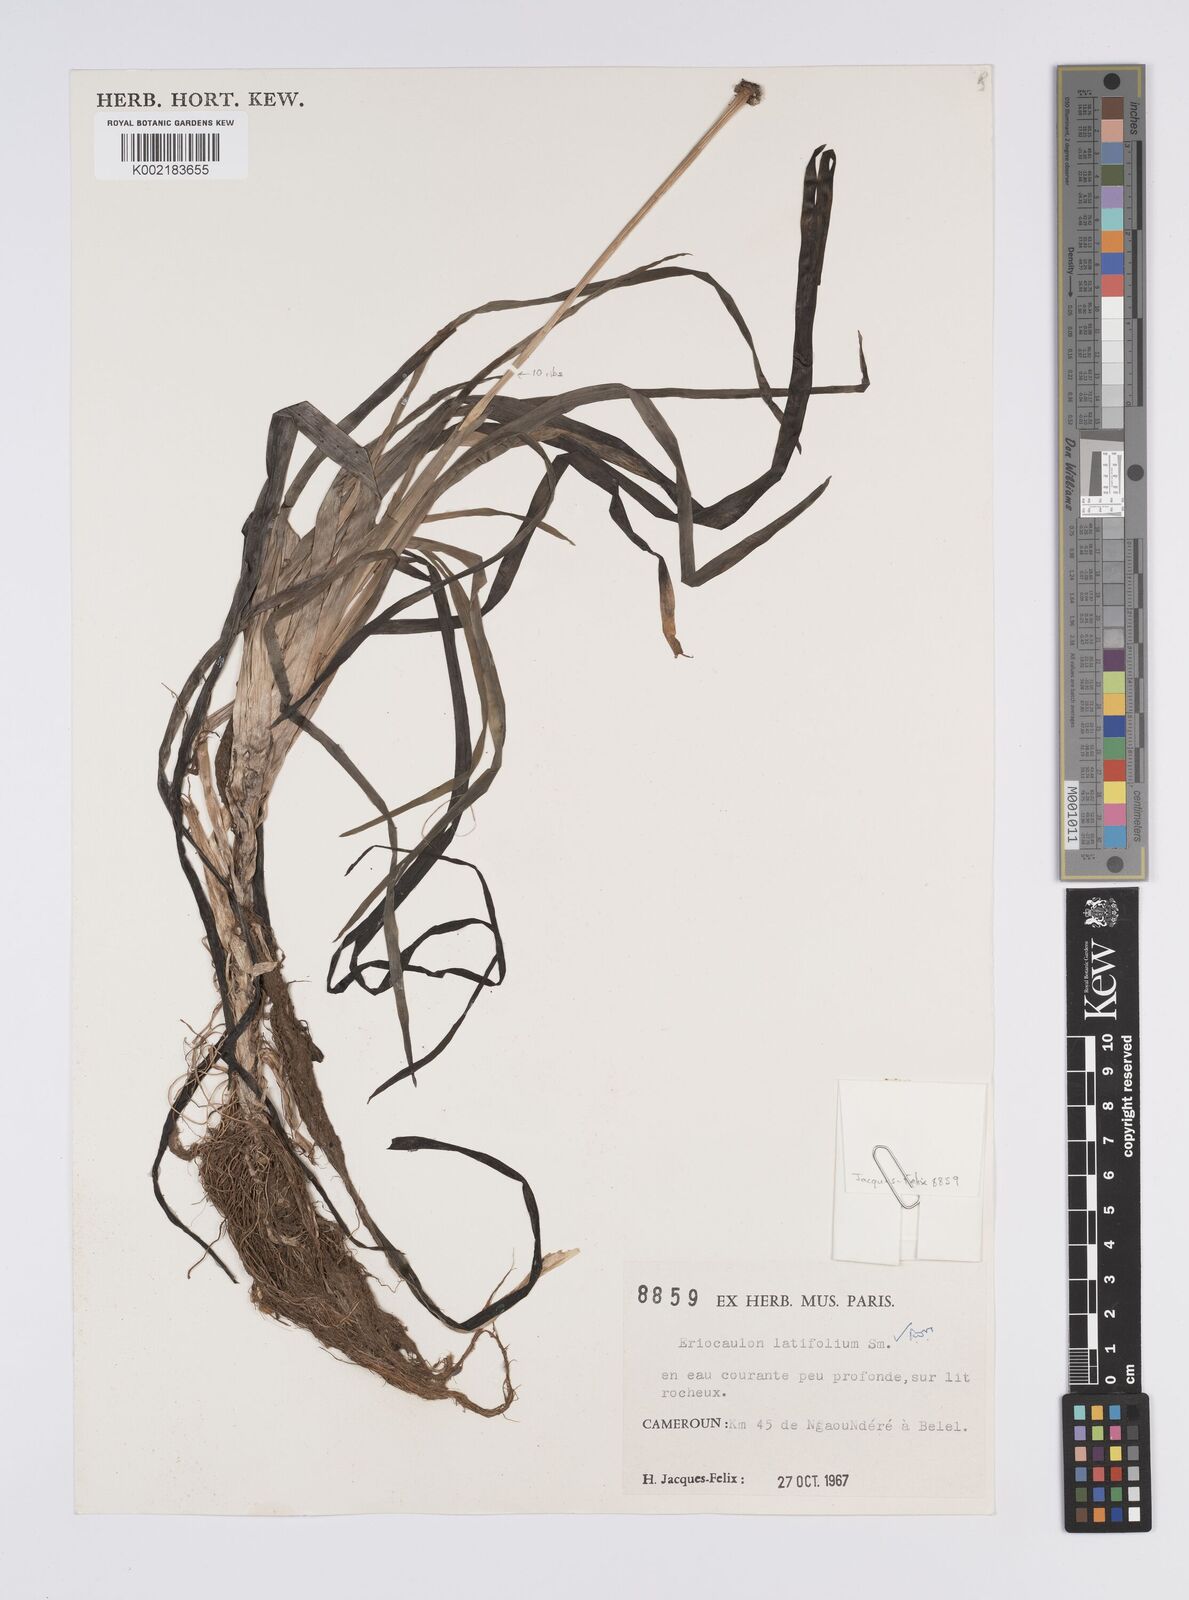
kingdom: Plantae
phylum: Tracheophyta
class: Liliopsida
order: Poales
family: Eriocaulaceae
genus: Eriocaulon
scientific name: Eriocaulon latifolium
